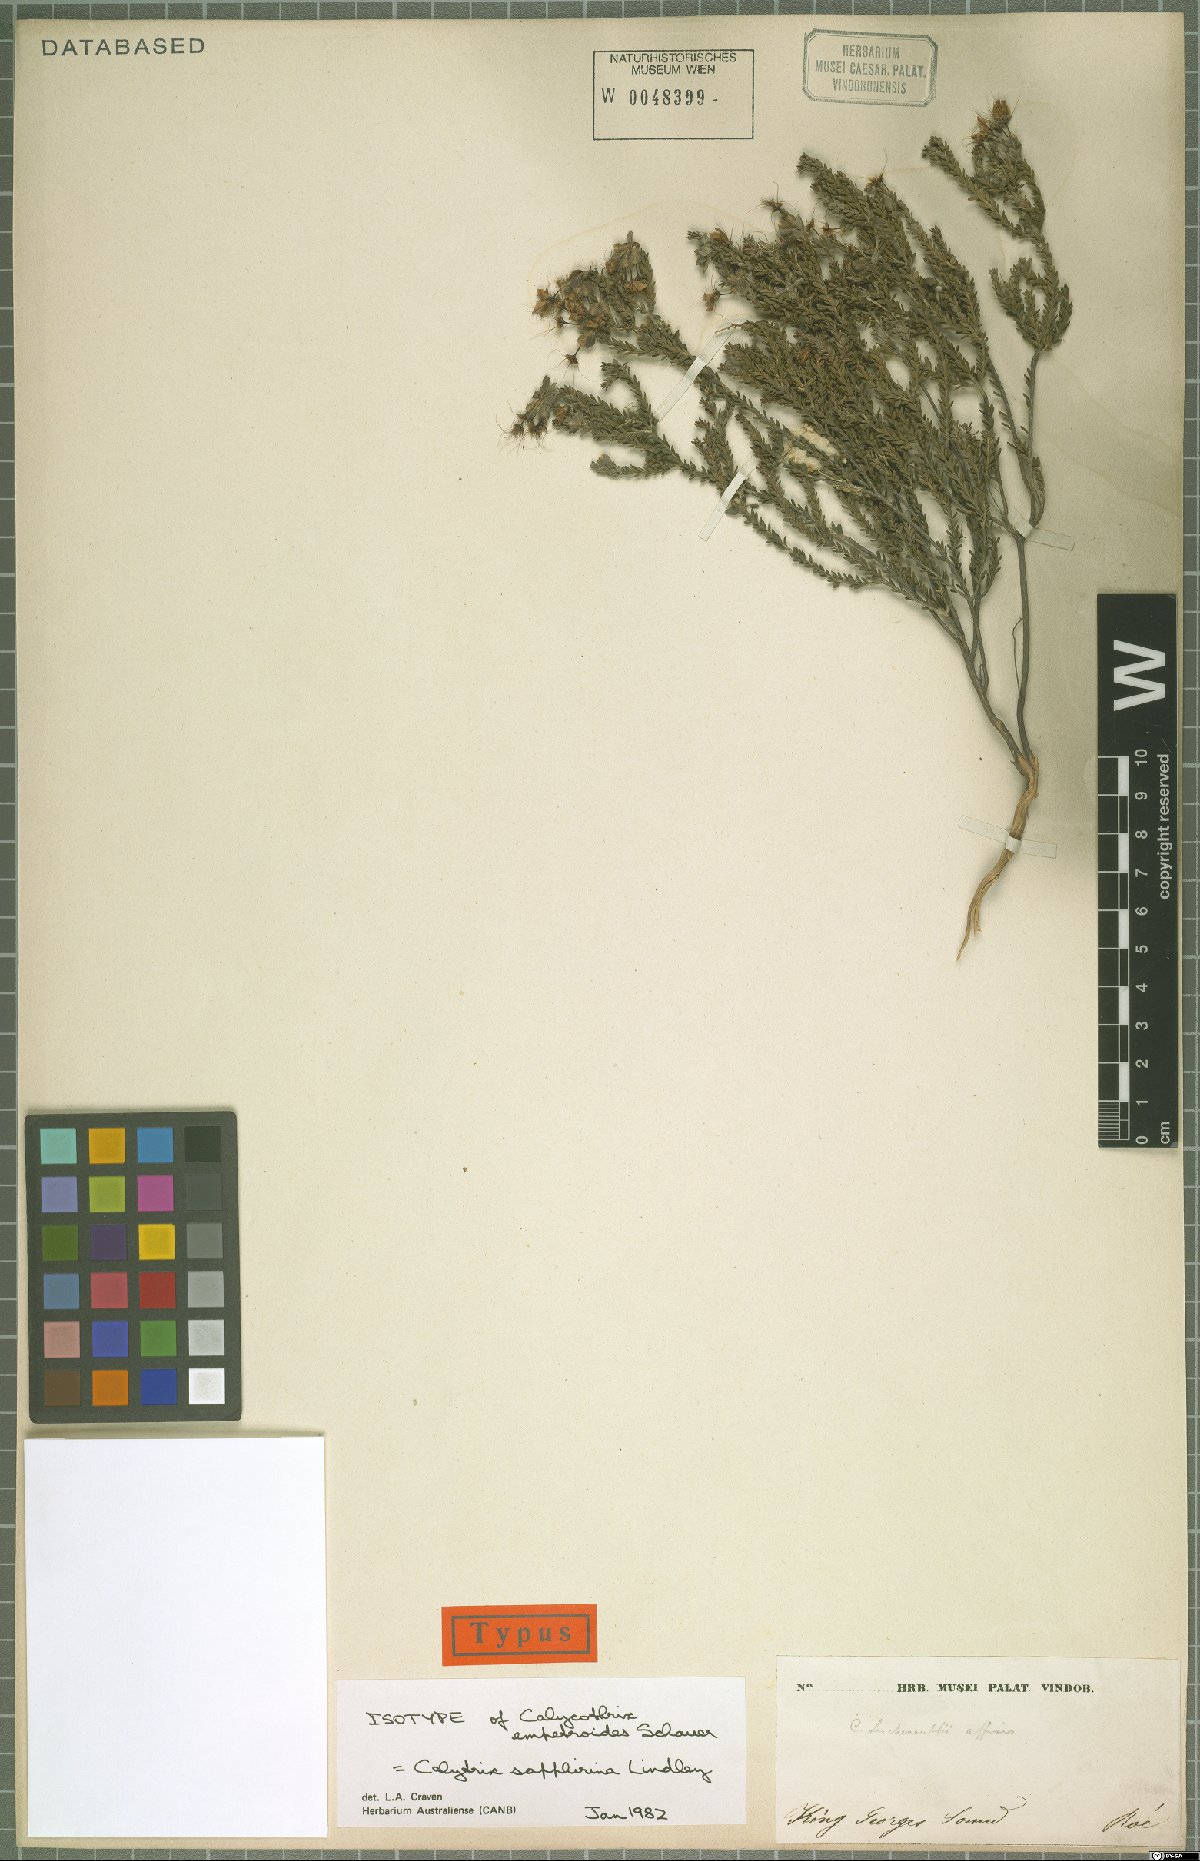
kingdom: Plantae
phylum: Tracheophyta
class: Magnoliopsida
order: Myrtales
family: Myrtaceae
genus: Calytrix
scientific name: Calytrix sapphirina
